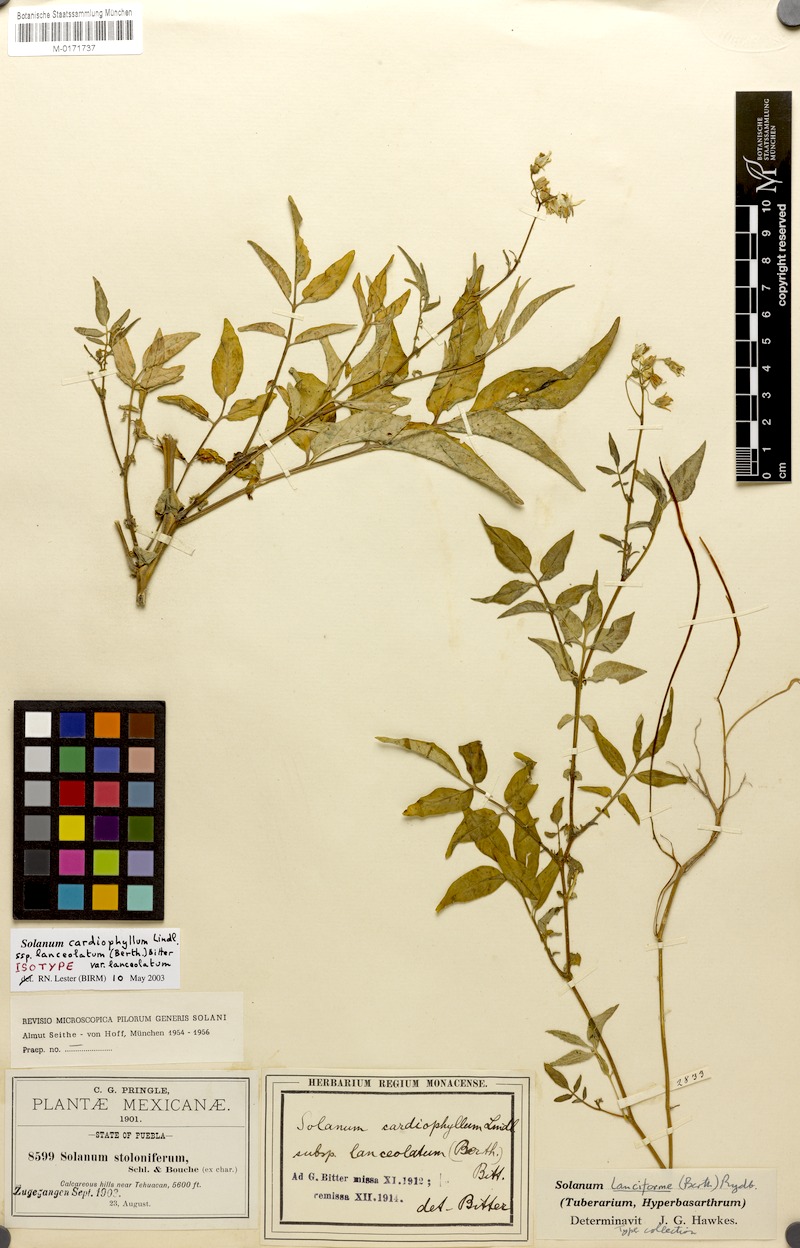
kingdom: Plantae
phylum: Tracheophyta
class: Magnoliopsida
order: Solanales
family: Solanaceae
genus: Solanum
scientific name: Solanum cardiophyllum
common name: Heartleaf horsenettle
